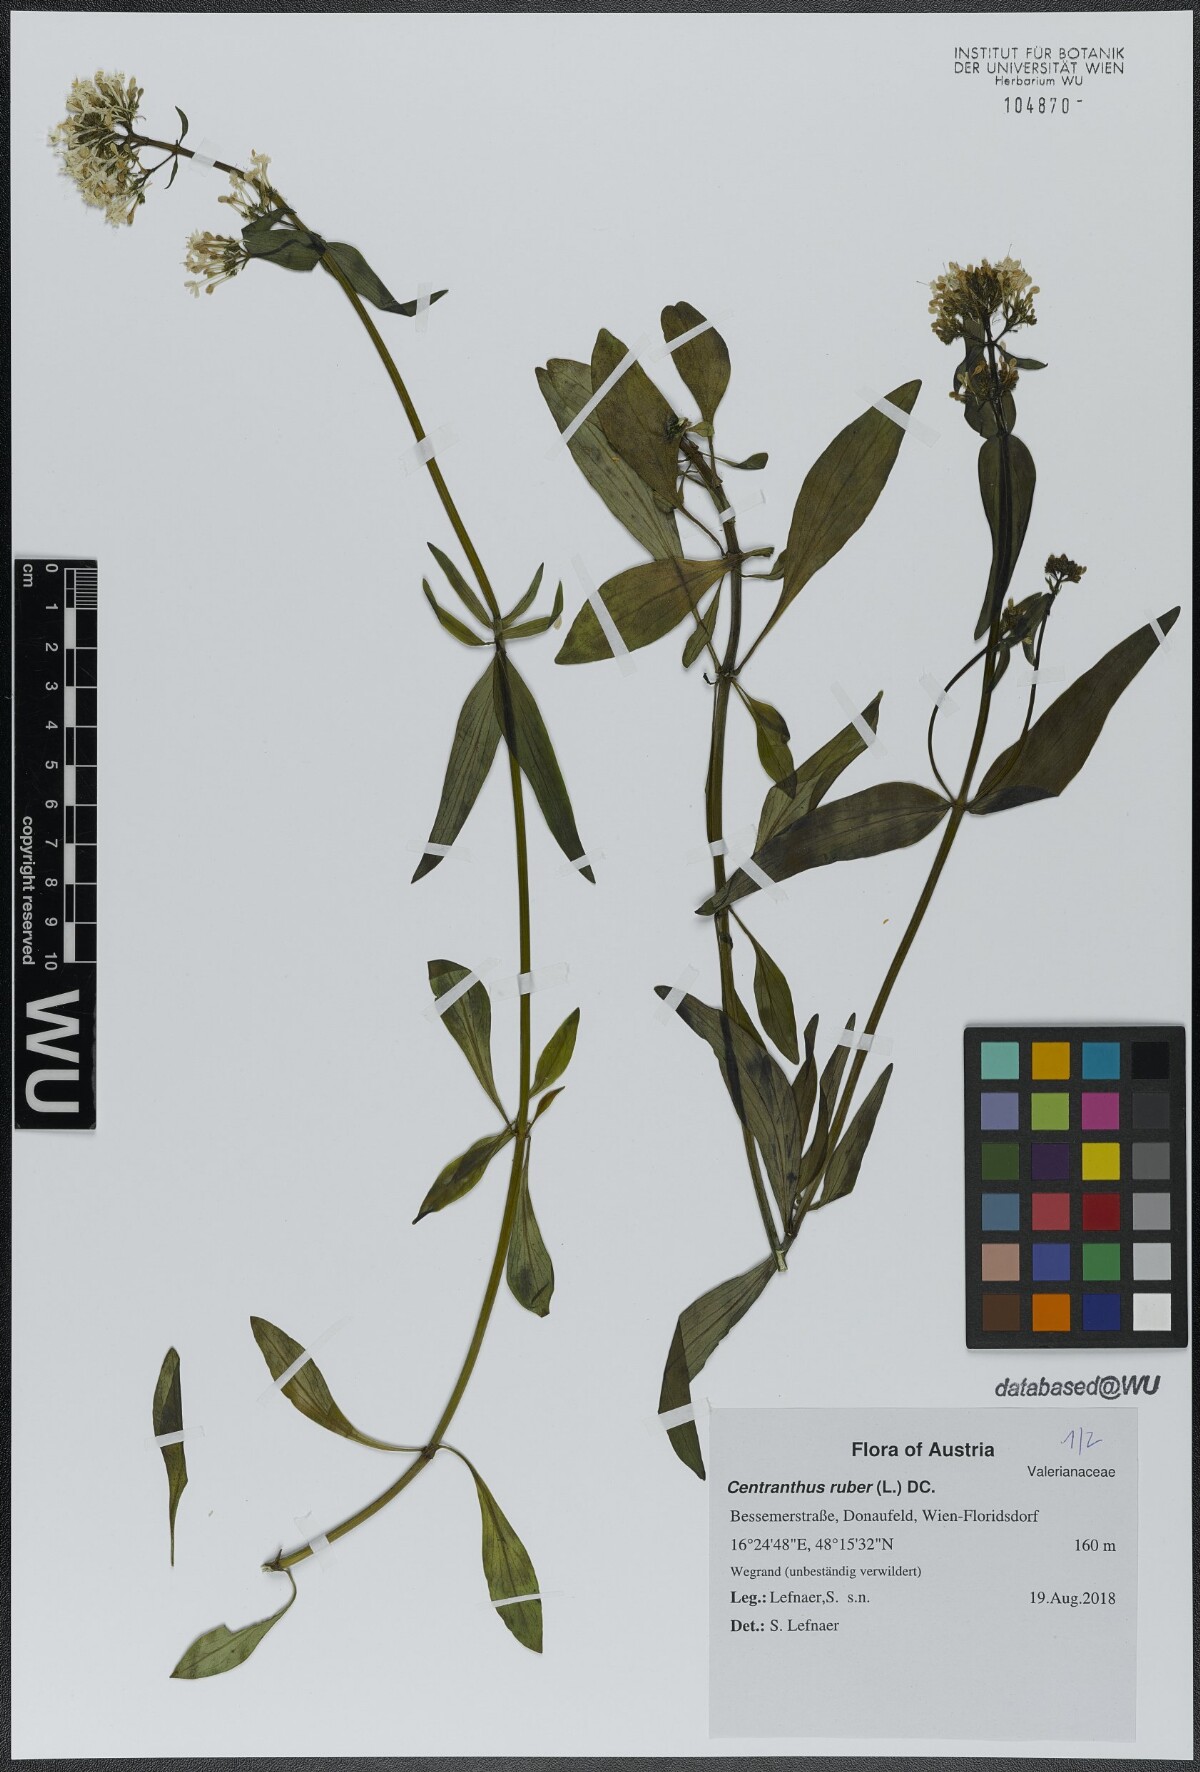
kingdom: Plantae
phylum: Tracheophyta
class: Magnoliopsida
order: Dipsacales
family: Caprifoliaceae
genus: Centranthus
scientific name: Centranthus ruber
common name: Red valerian
